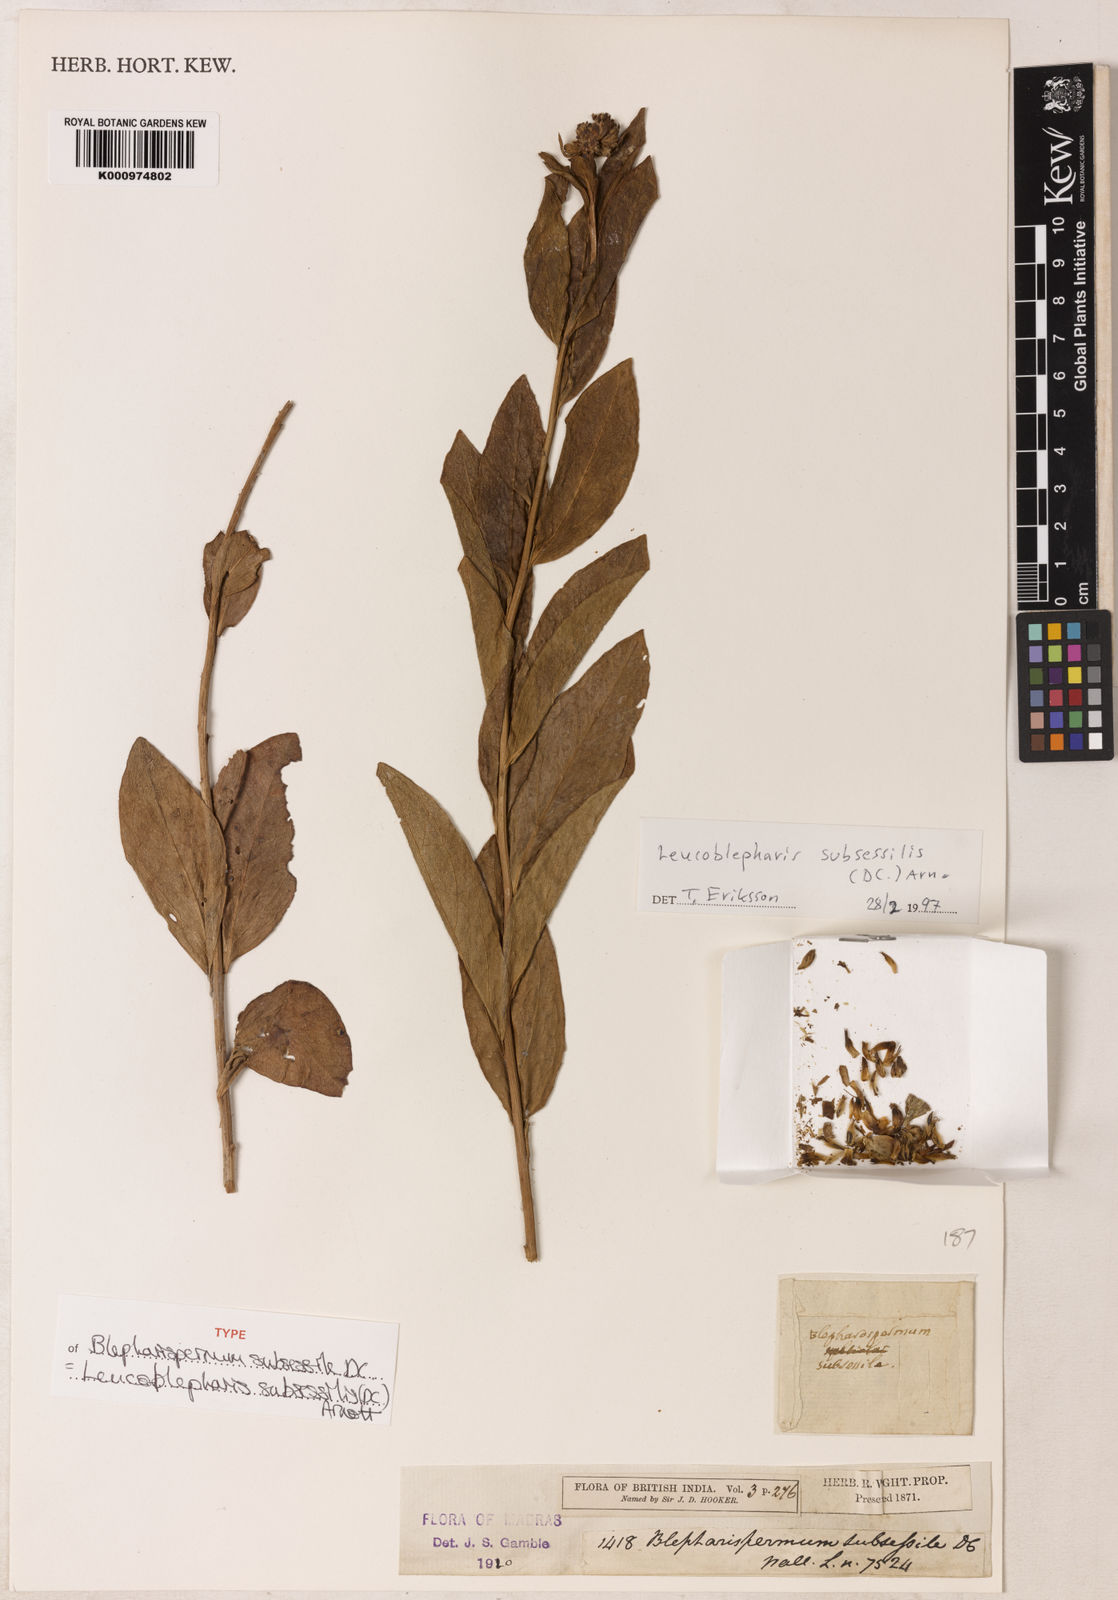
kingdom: Plantae
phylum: Tracheophyta
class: Magnoliopsida
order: Asterales
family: Asteraceae
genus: Leucoblepharis
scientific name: Leucoblepharis subsessilis
